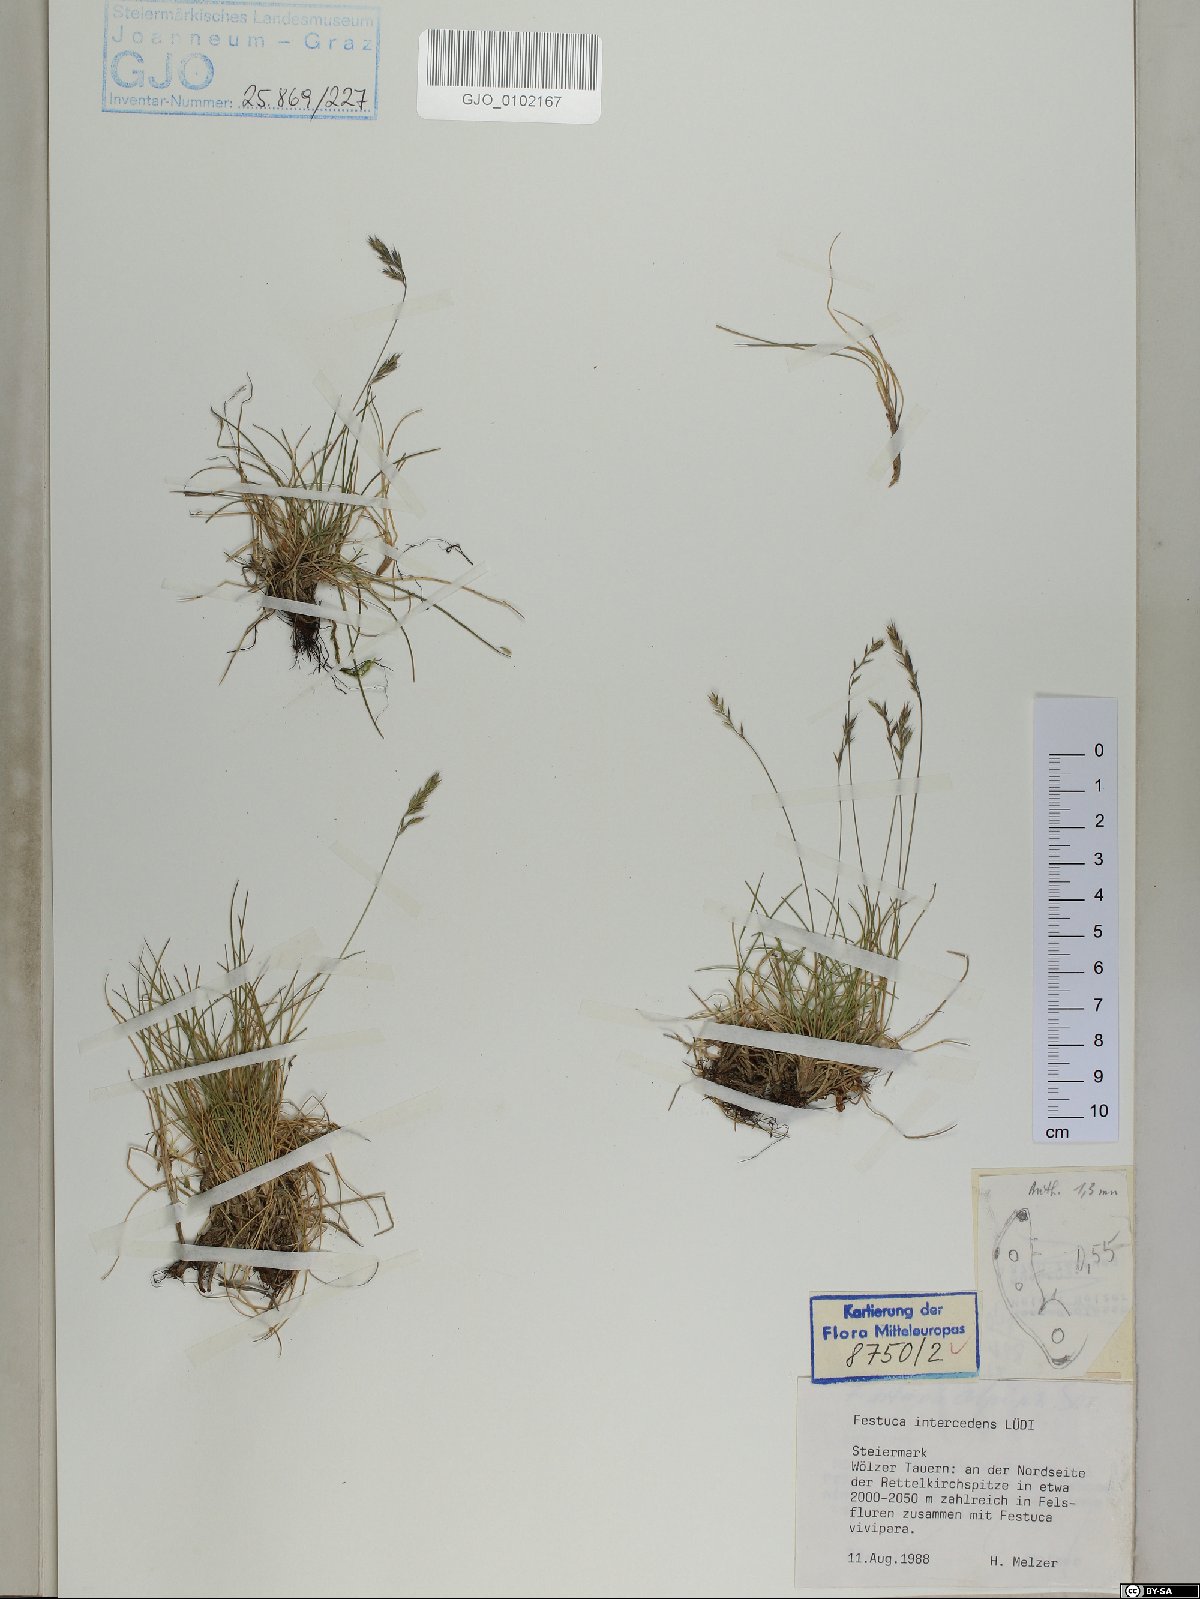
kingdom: Plantae
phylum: Tracheophyta
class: Liliopsida
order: Poales
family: Poaceae
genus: Festuca
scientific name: Festuca intercedens
